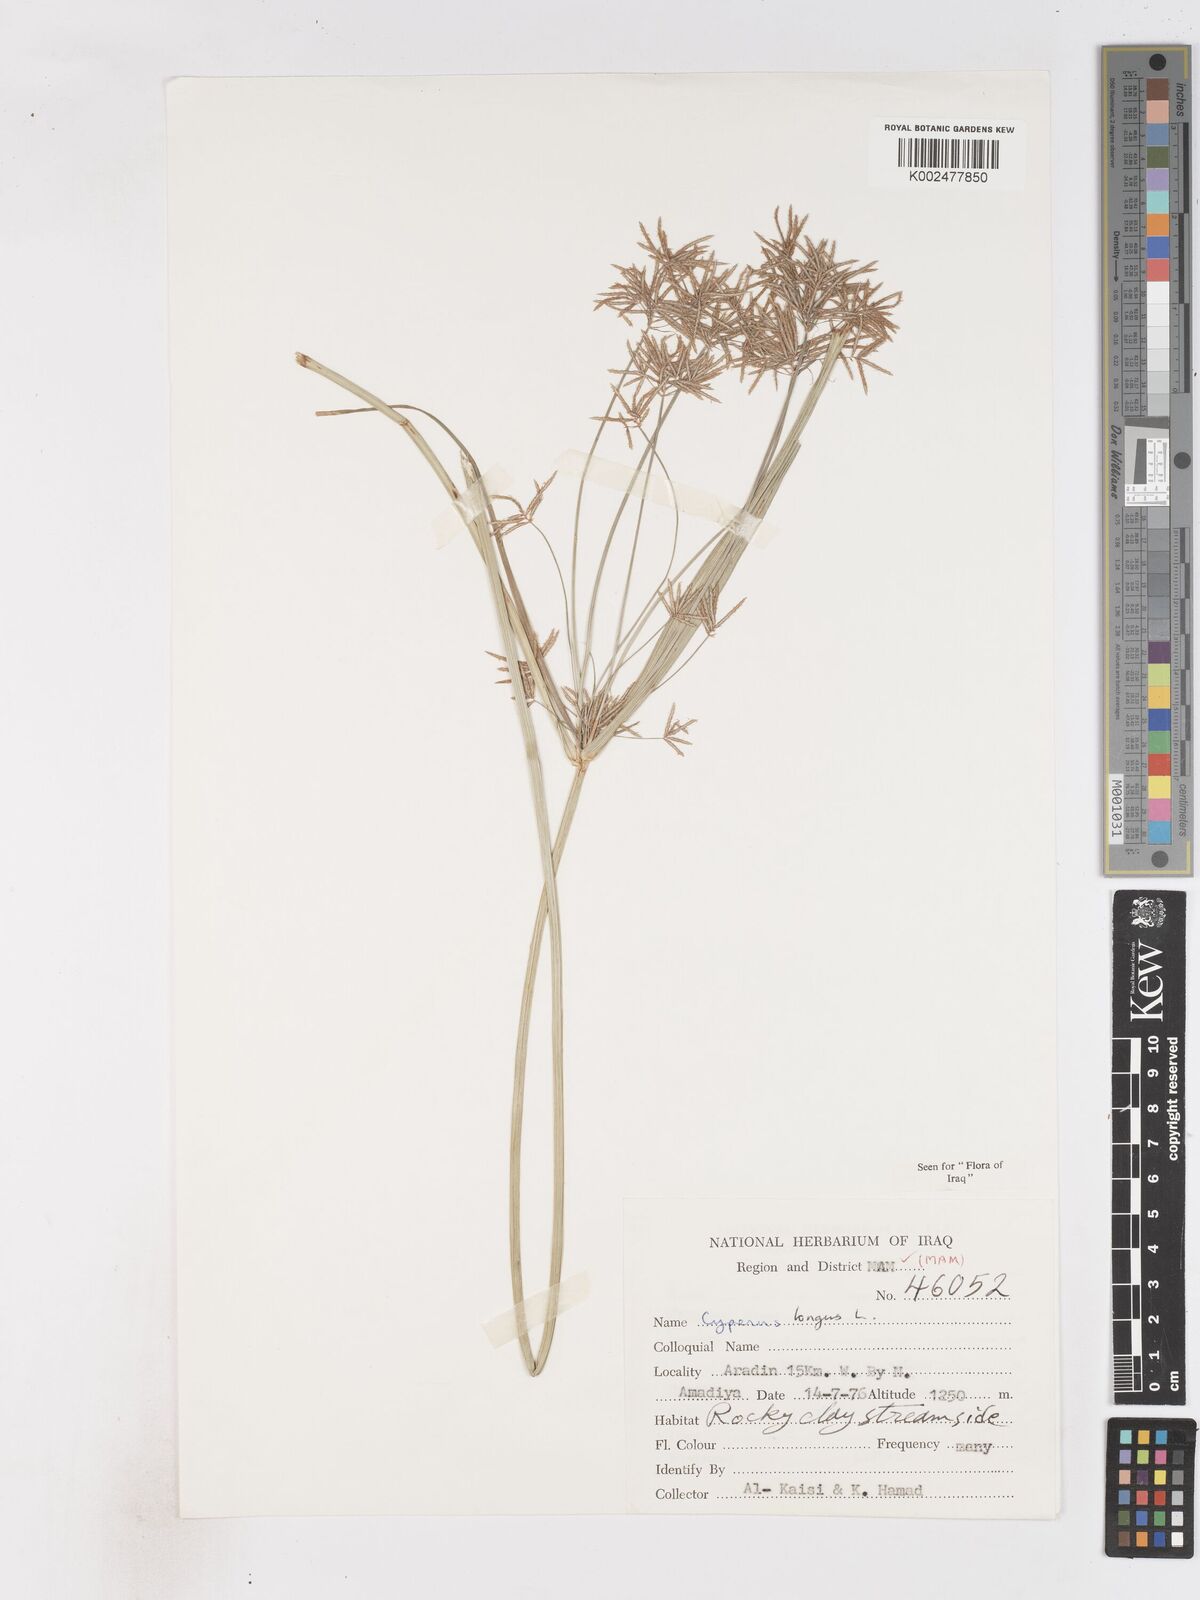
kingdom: Plantae
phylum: Tracheophyta
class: Liliopsida
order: Poales
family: Cyperaceae
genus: Cyperus
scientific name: Cyperus longus
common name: Galingale
